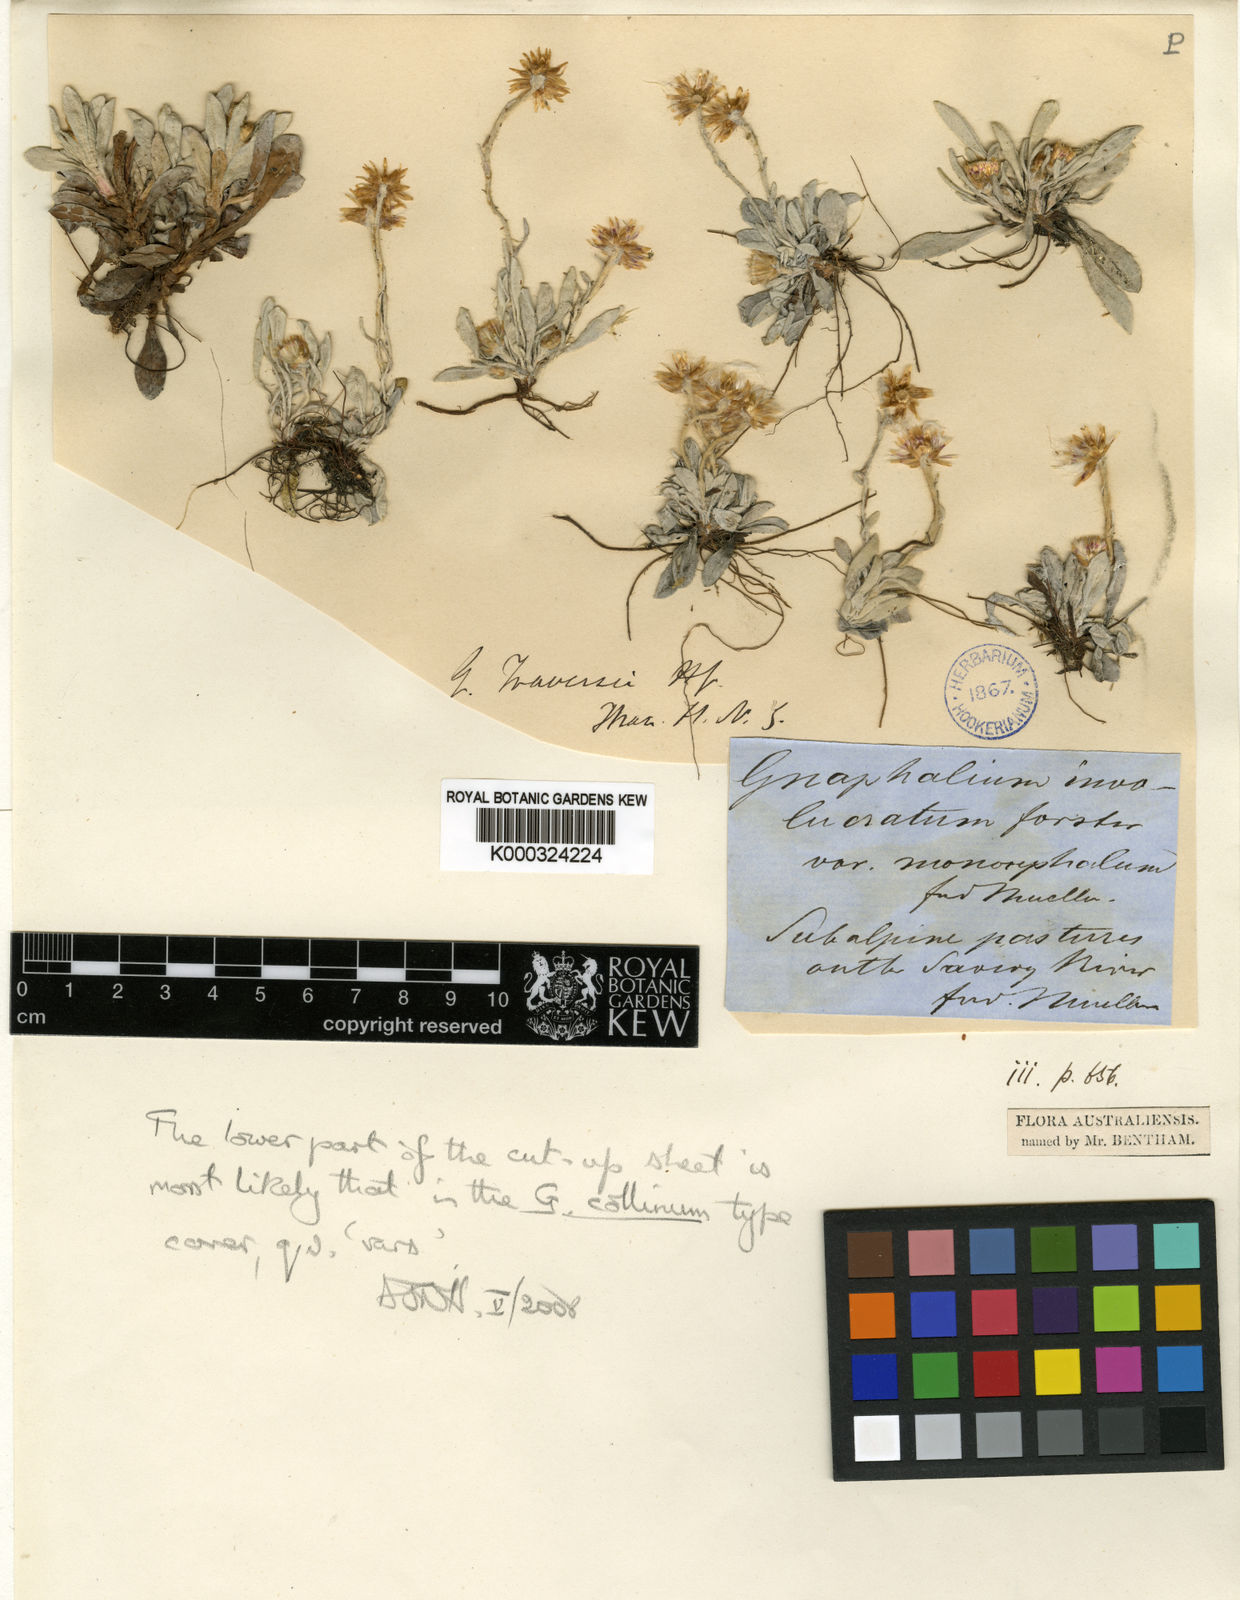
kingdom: Plantae
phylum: Tracheophyta
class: Magnoliopsida
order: Asterales
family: Asteraceae
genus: Euchiton
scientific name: Euchiton japonicus
